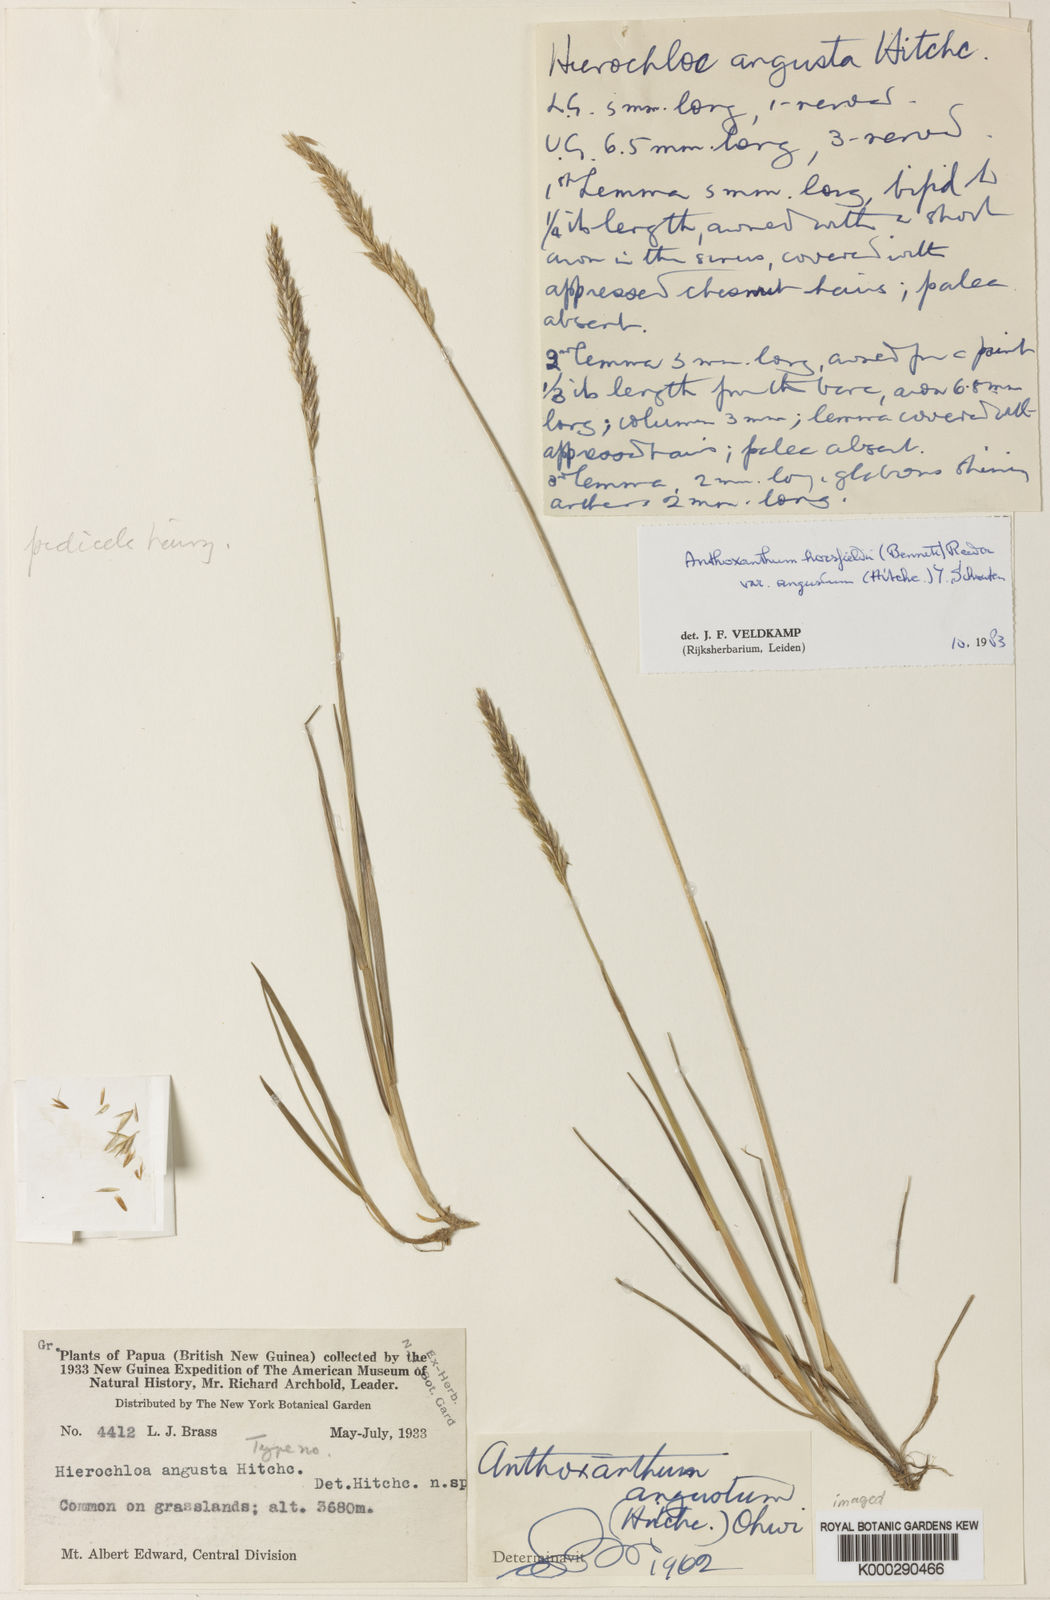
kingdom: Plantae
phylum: Tracheophyta
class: Liliopsida
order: Poales
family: Poaceae
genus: Anthoxanthum
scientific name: Anthoxanthum horsfieldii
